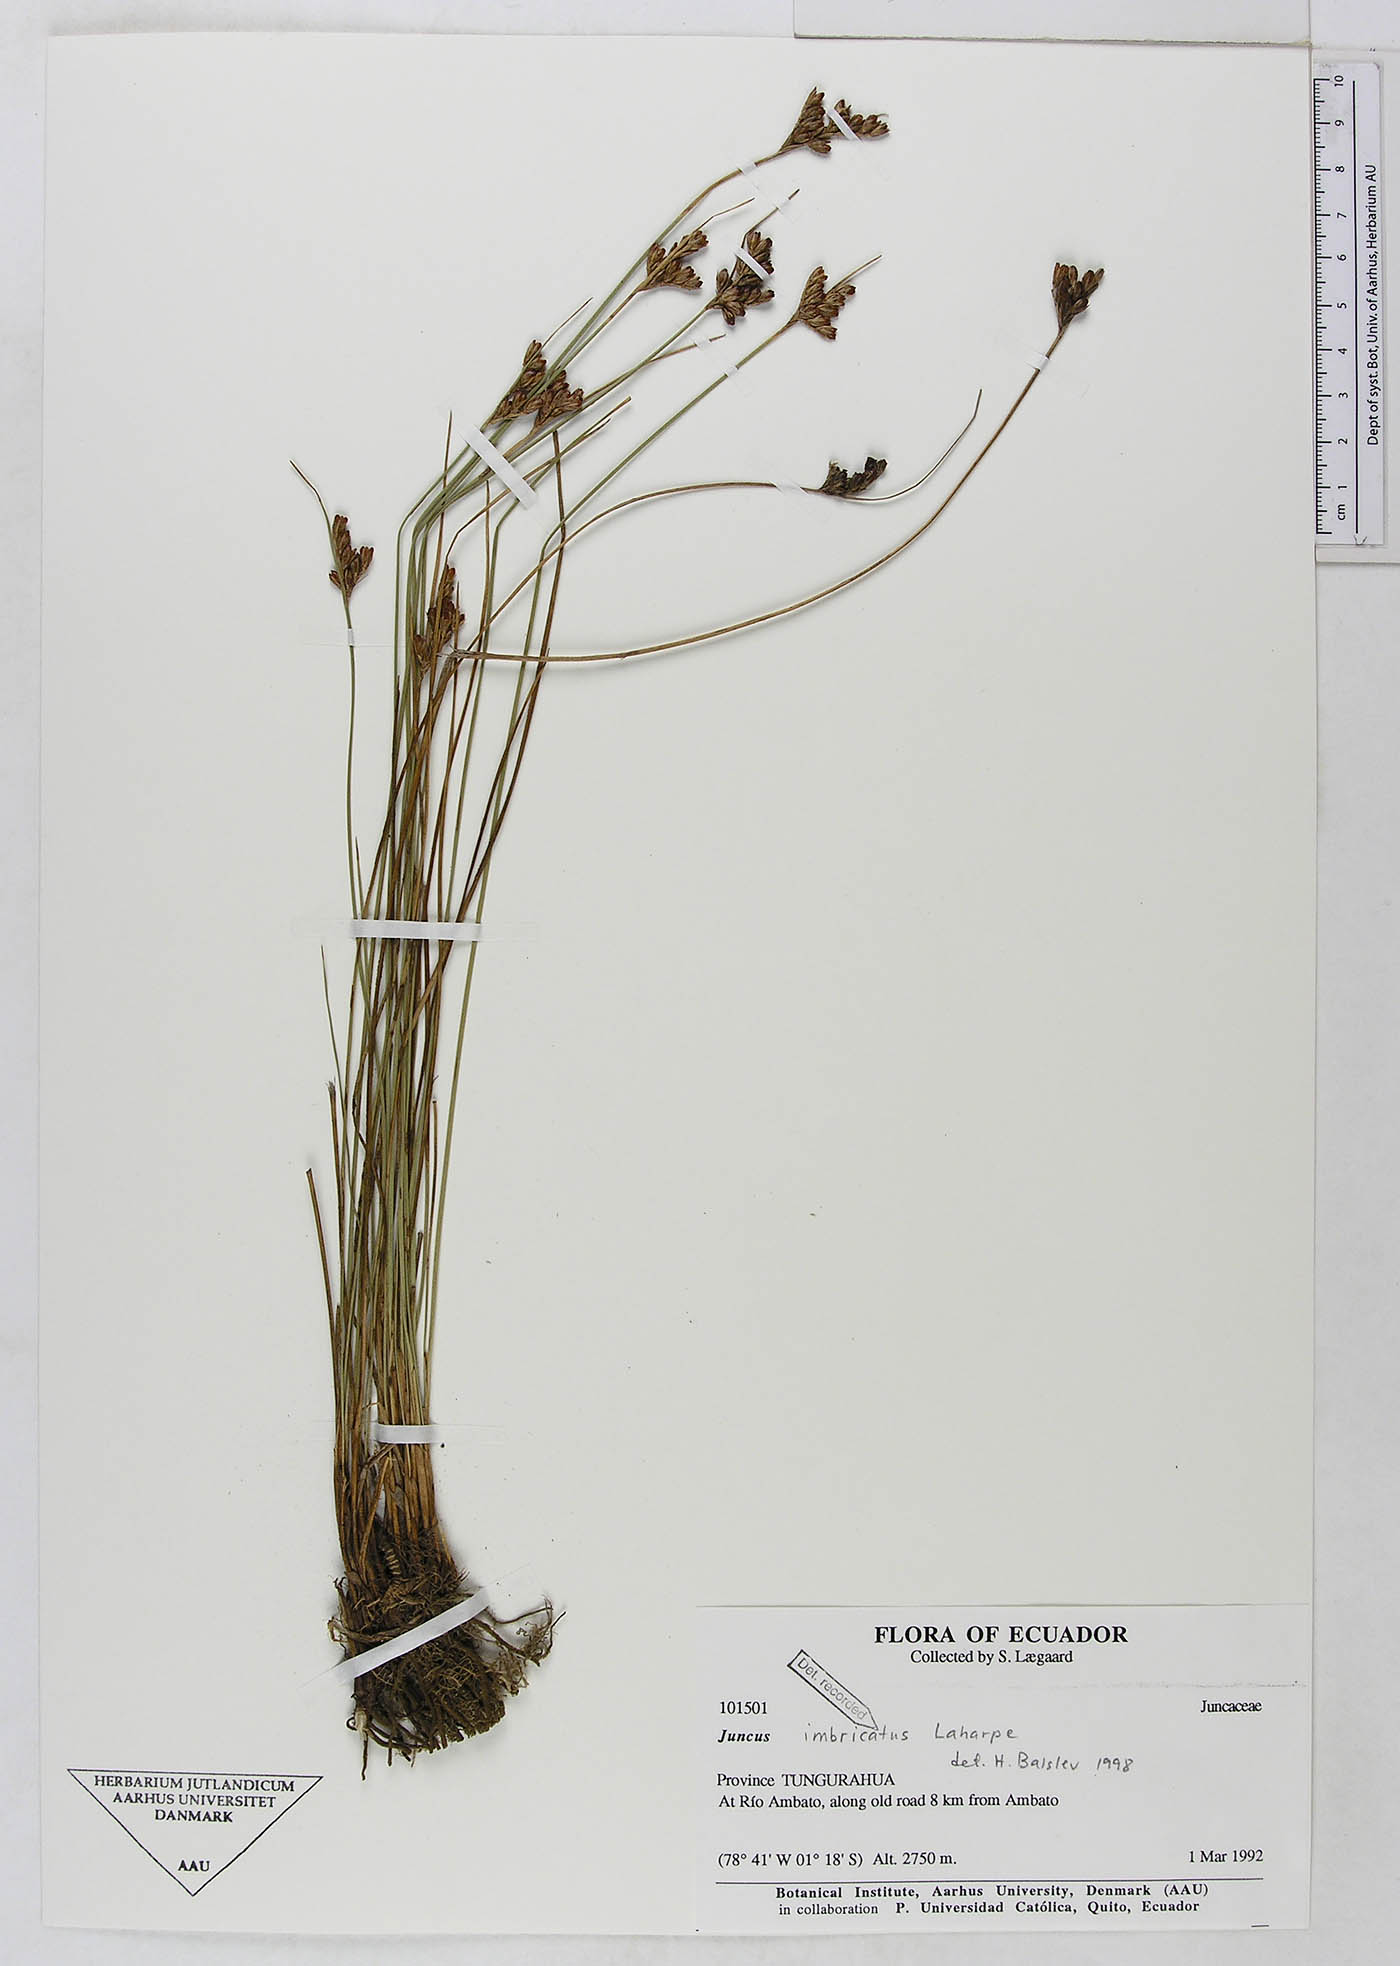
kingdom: Plantae
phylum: Tracheophyta
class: Liliopsida
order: Poales
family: Juncaceae
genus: Juncus
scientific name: Juncus imbricatus
